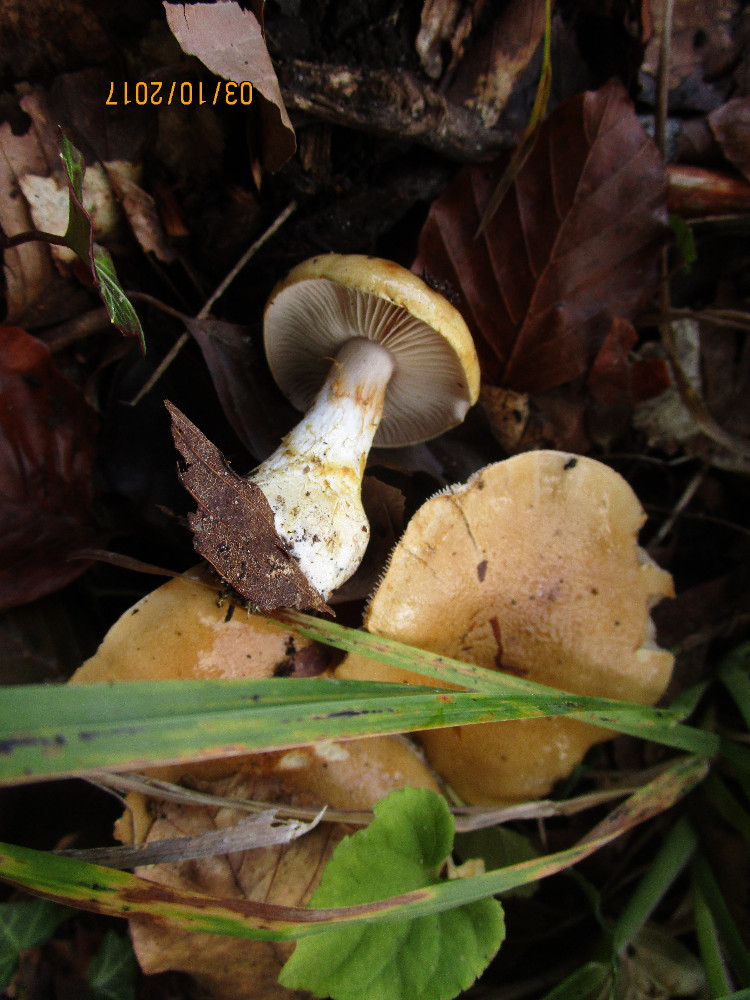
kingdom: Fungi
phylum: Basidiomycota
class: Agaricomycetes
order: Agaricales
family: Cortinariaceae
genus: Phlegmacium
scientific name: Phlegmacium cliduchus
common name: majs-slørhat
